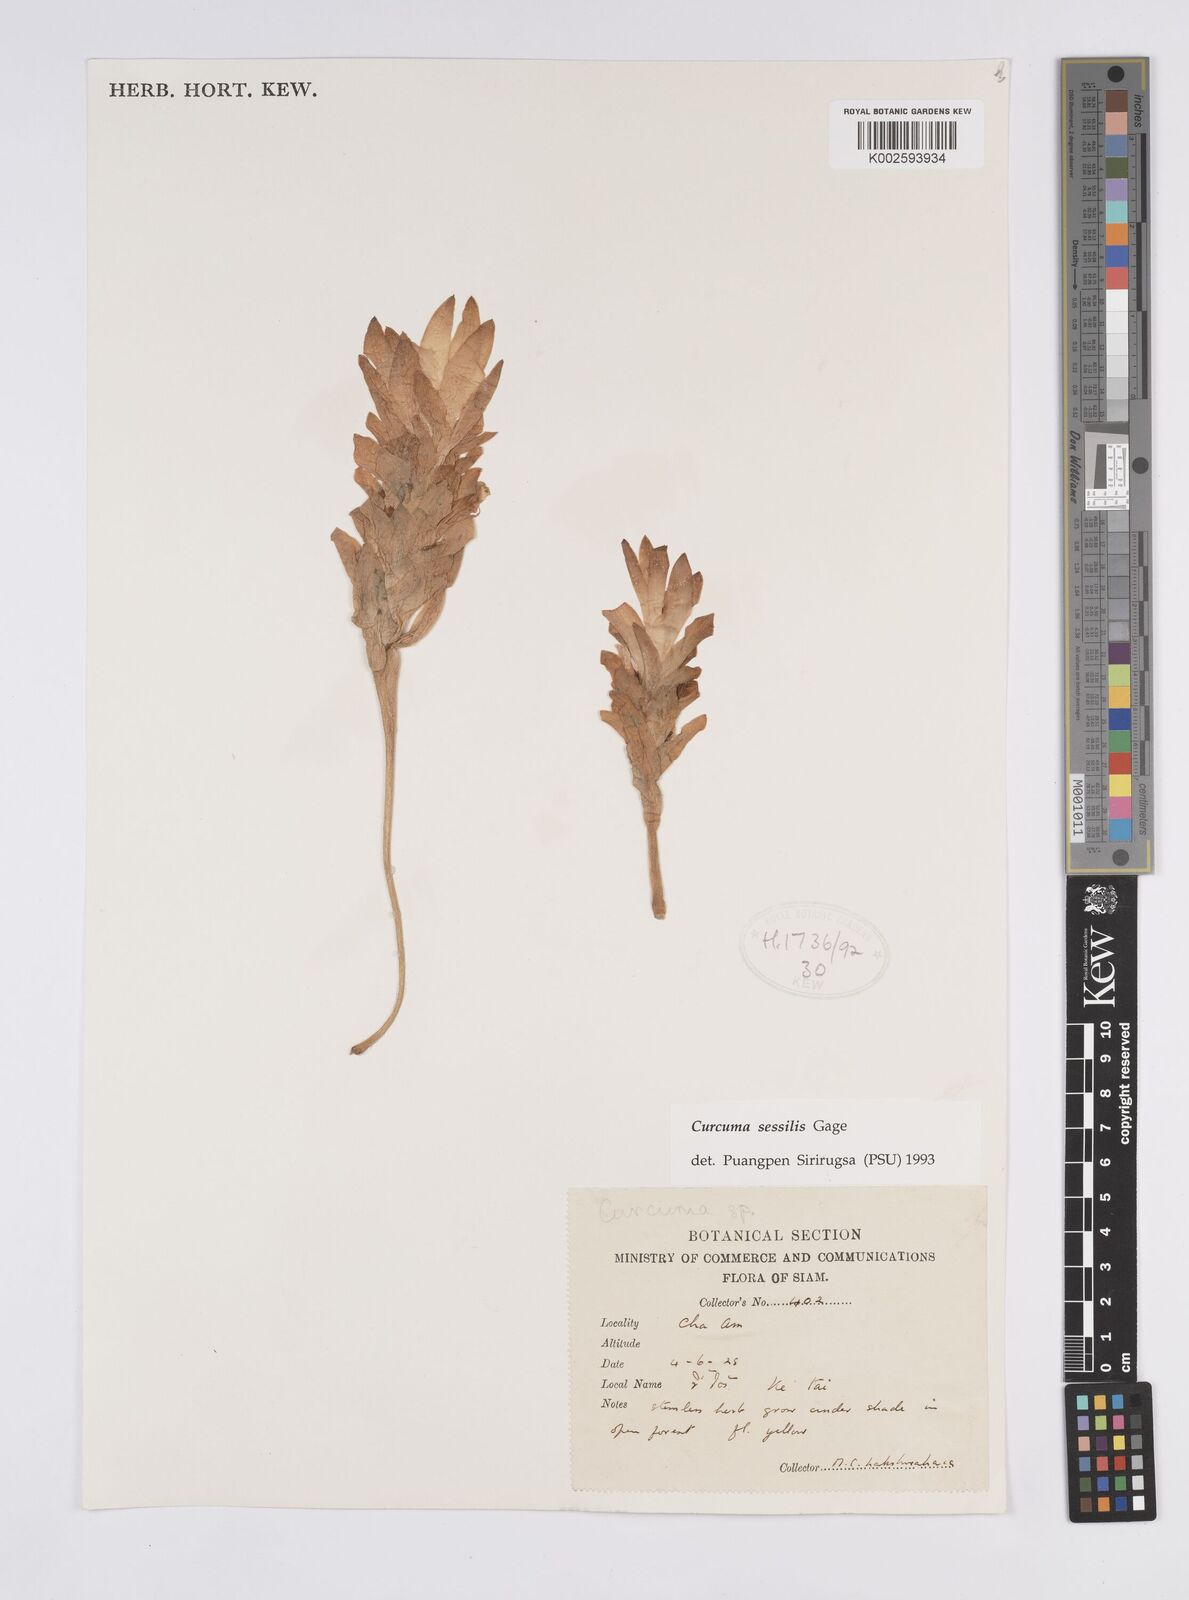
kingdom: Plantae
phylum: Tracheophyta
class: Liliopsida
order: Zingiberales
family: Zingiberaceae
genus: Curcuma
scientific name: Curcuma sessilis
